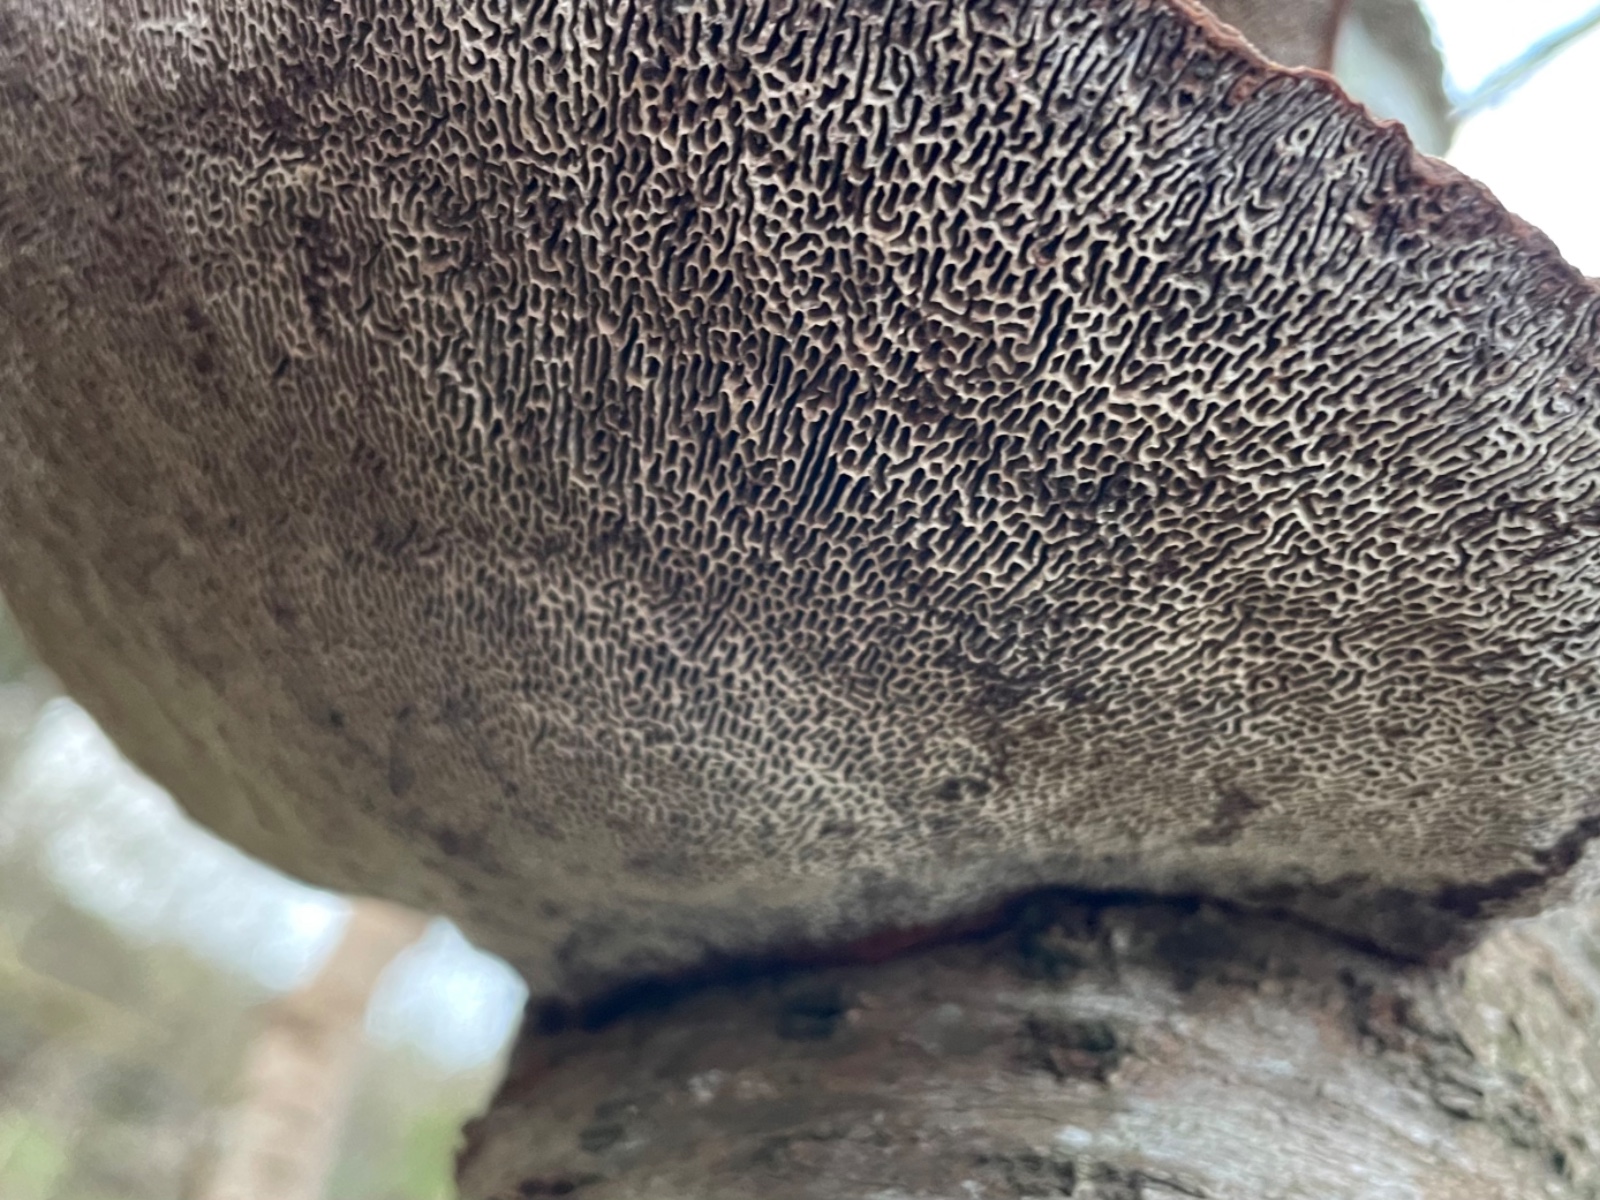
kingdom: Fungi
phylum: Basidiomycota
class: Agaricomycetes
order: Polyporales
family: Polyporaceae
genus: Daedaleopsis
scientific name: Daedaleopsis confragosa
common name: rødmende læderporesvamp
